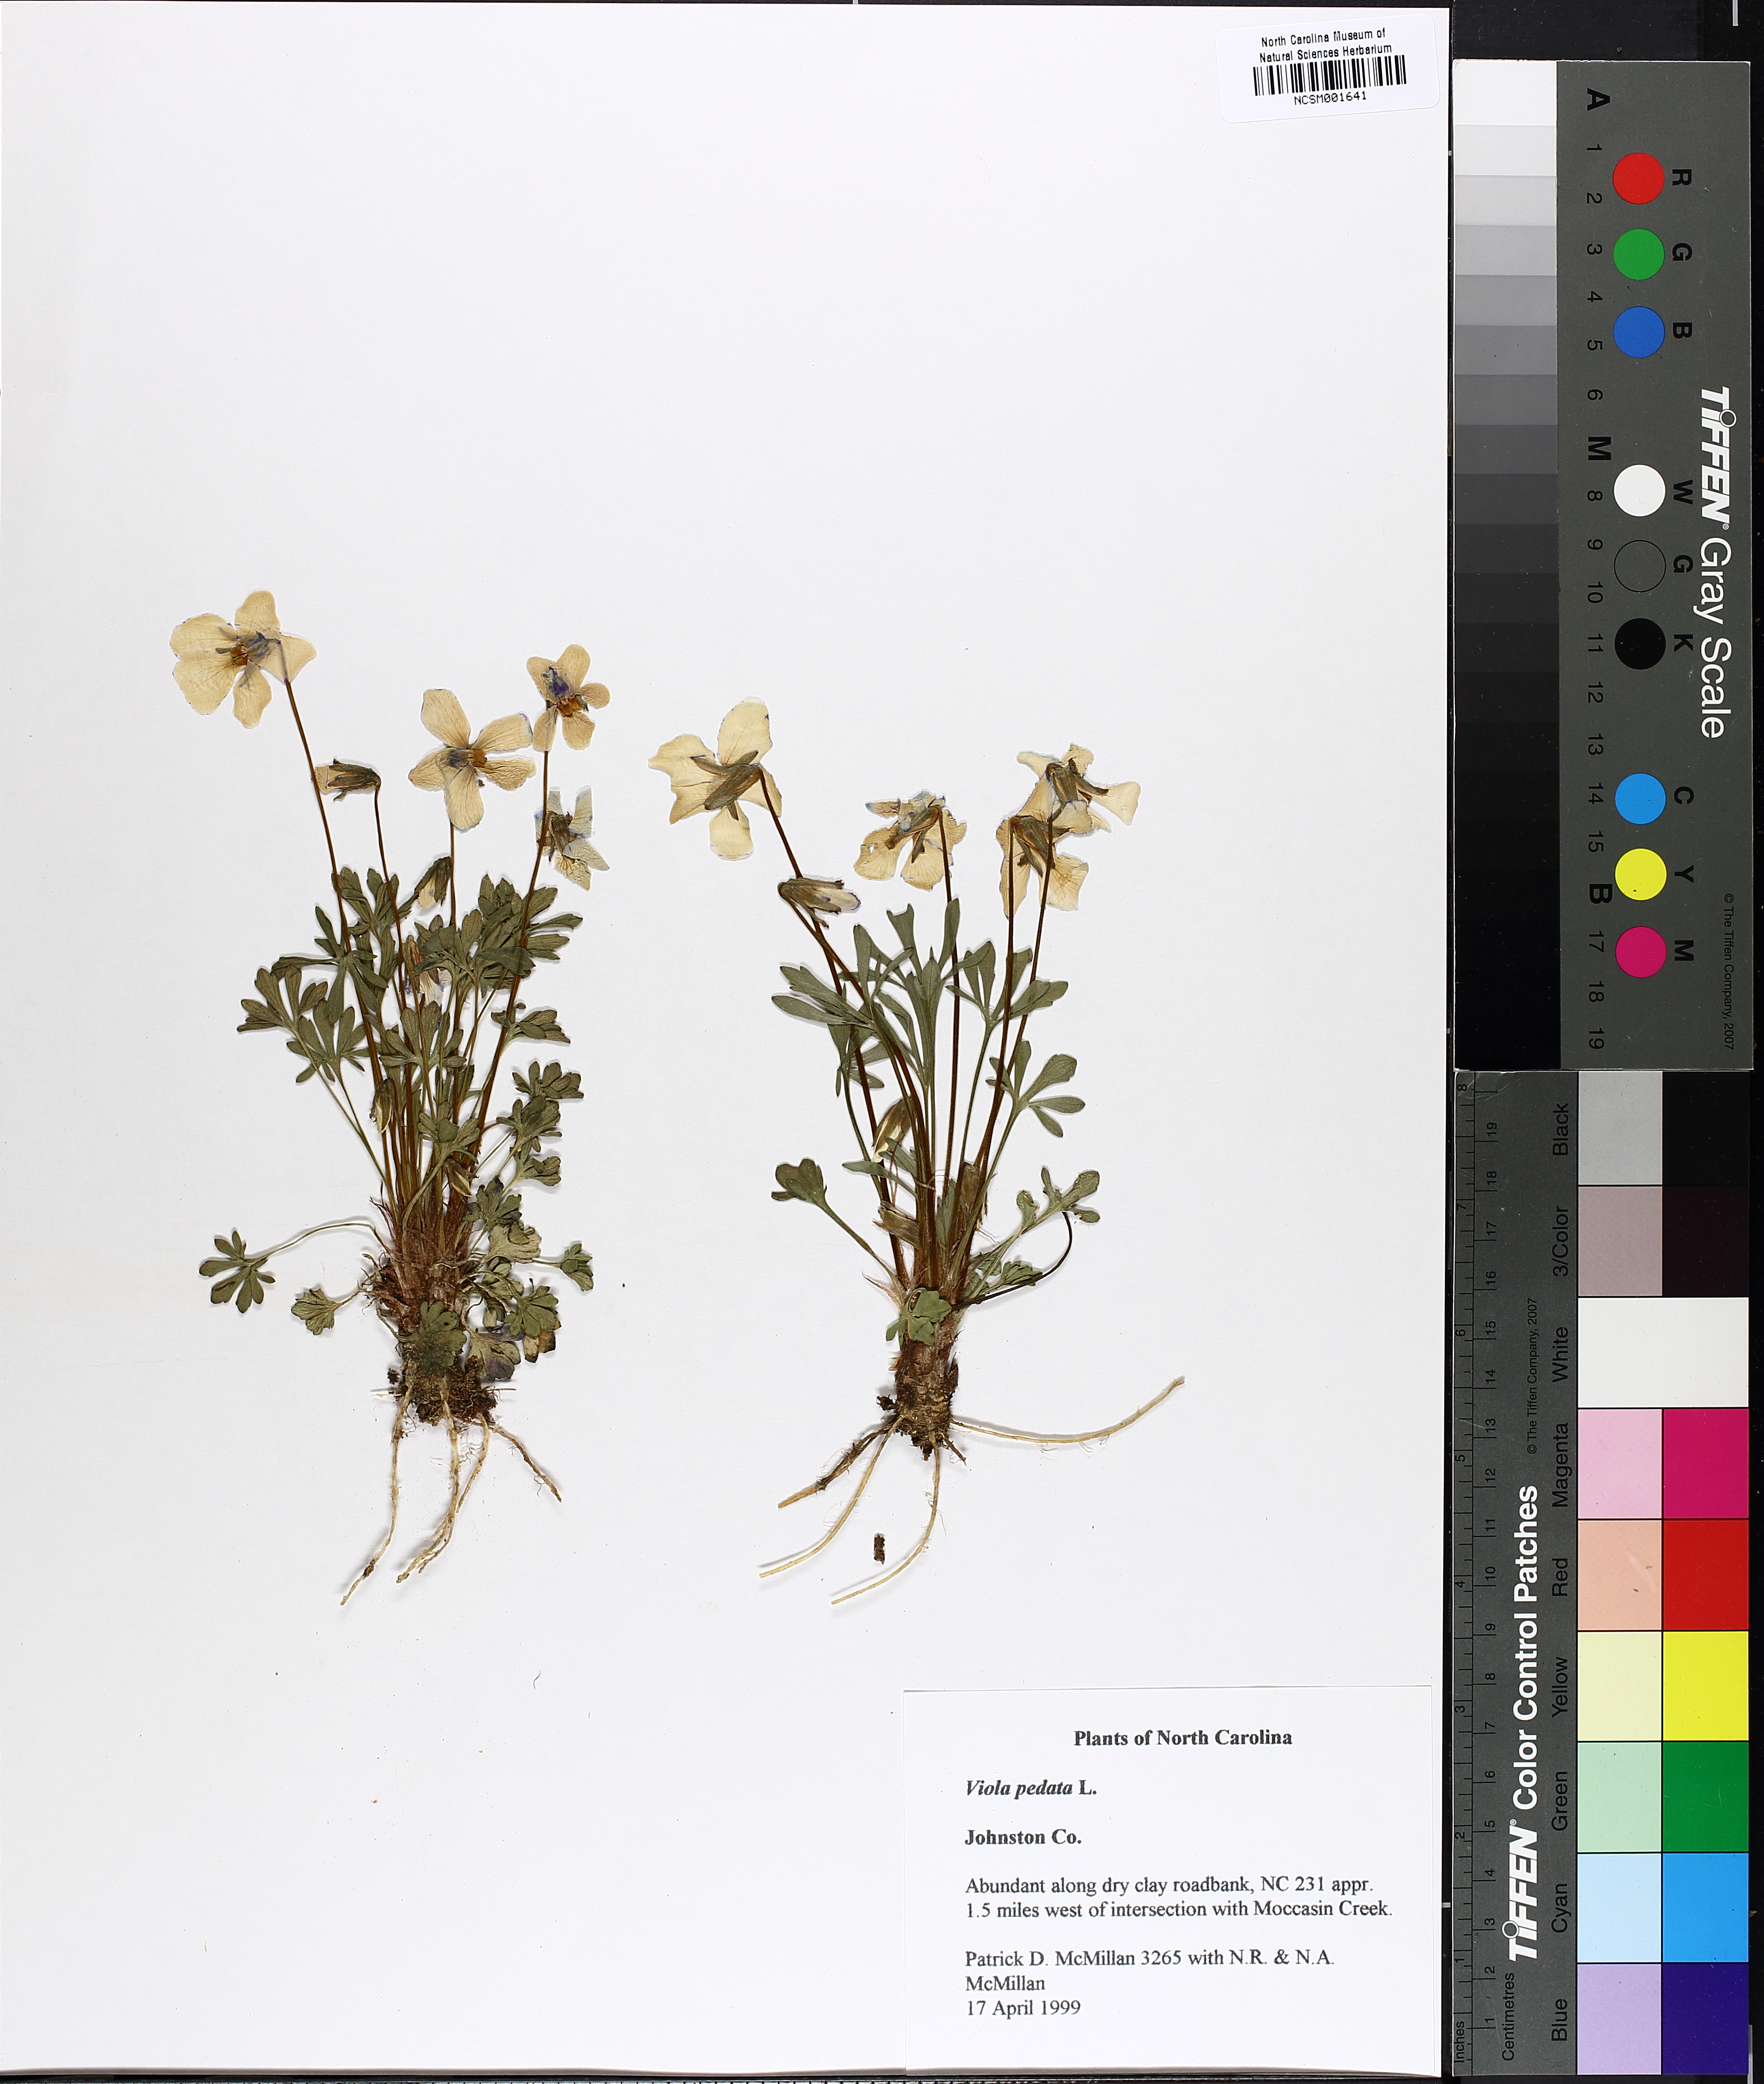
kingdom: Plantae
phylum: Tracheophyta
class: Magnoliopsida
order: Malpighiales
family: Violaceae
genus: Viola
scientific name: Viola pedata
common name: Pansy violet
